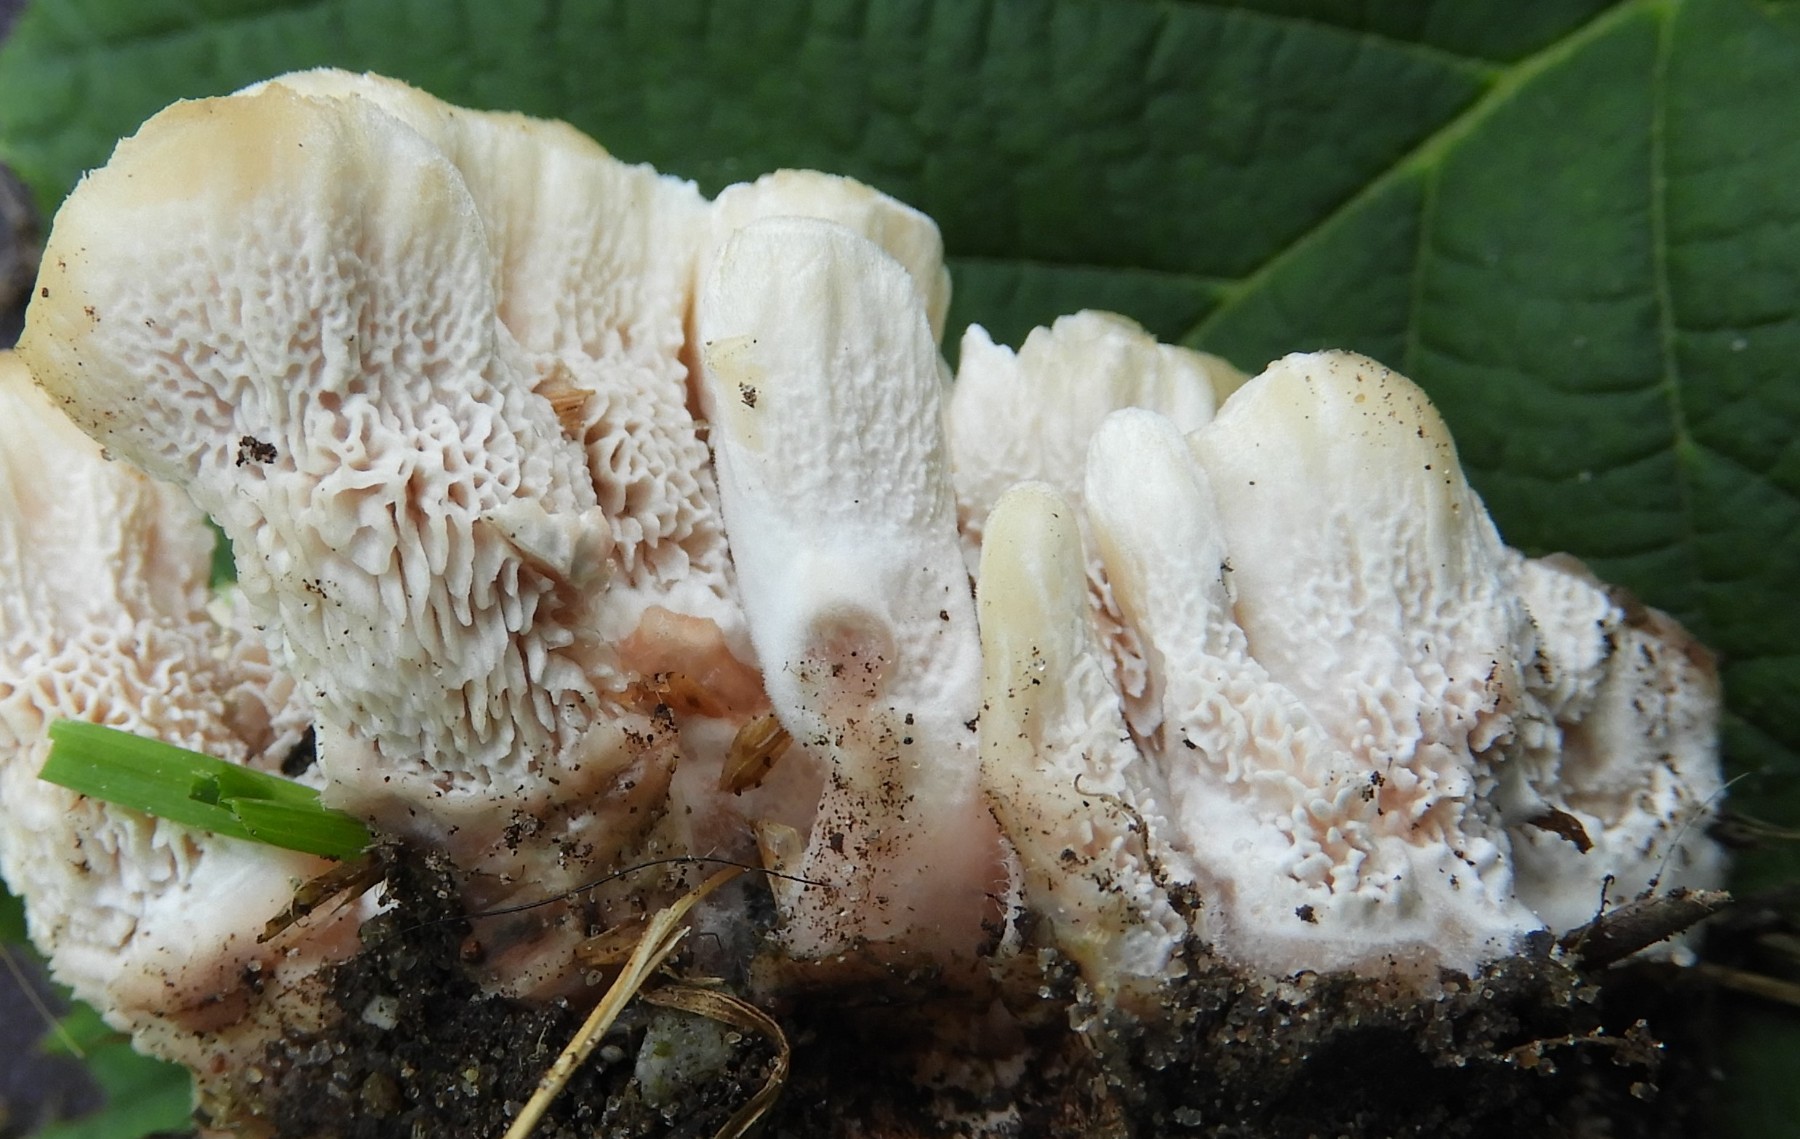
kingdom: Fungi
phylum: Basidiomycota
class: Agaricomycetes
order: Polyporales
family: Podoscyphaceae
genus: Abortiporus
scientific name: Abortiporus biennis
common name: rødmende pjalteporesvamp
